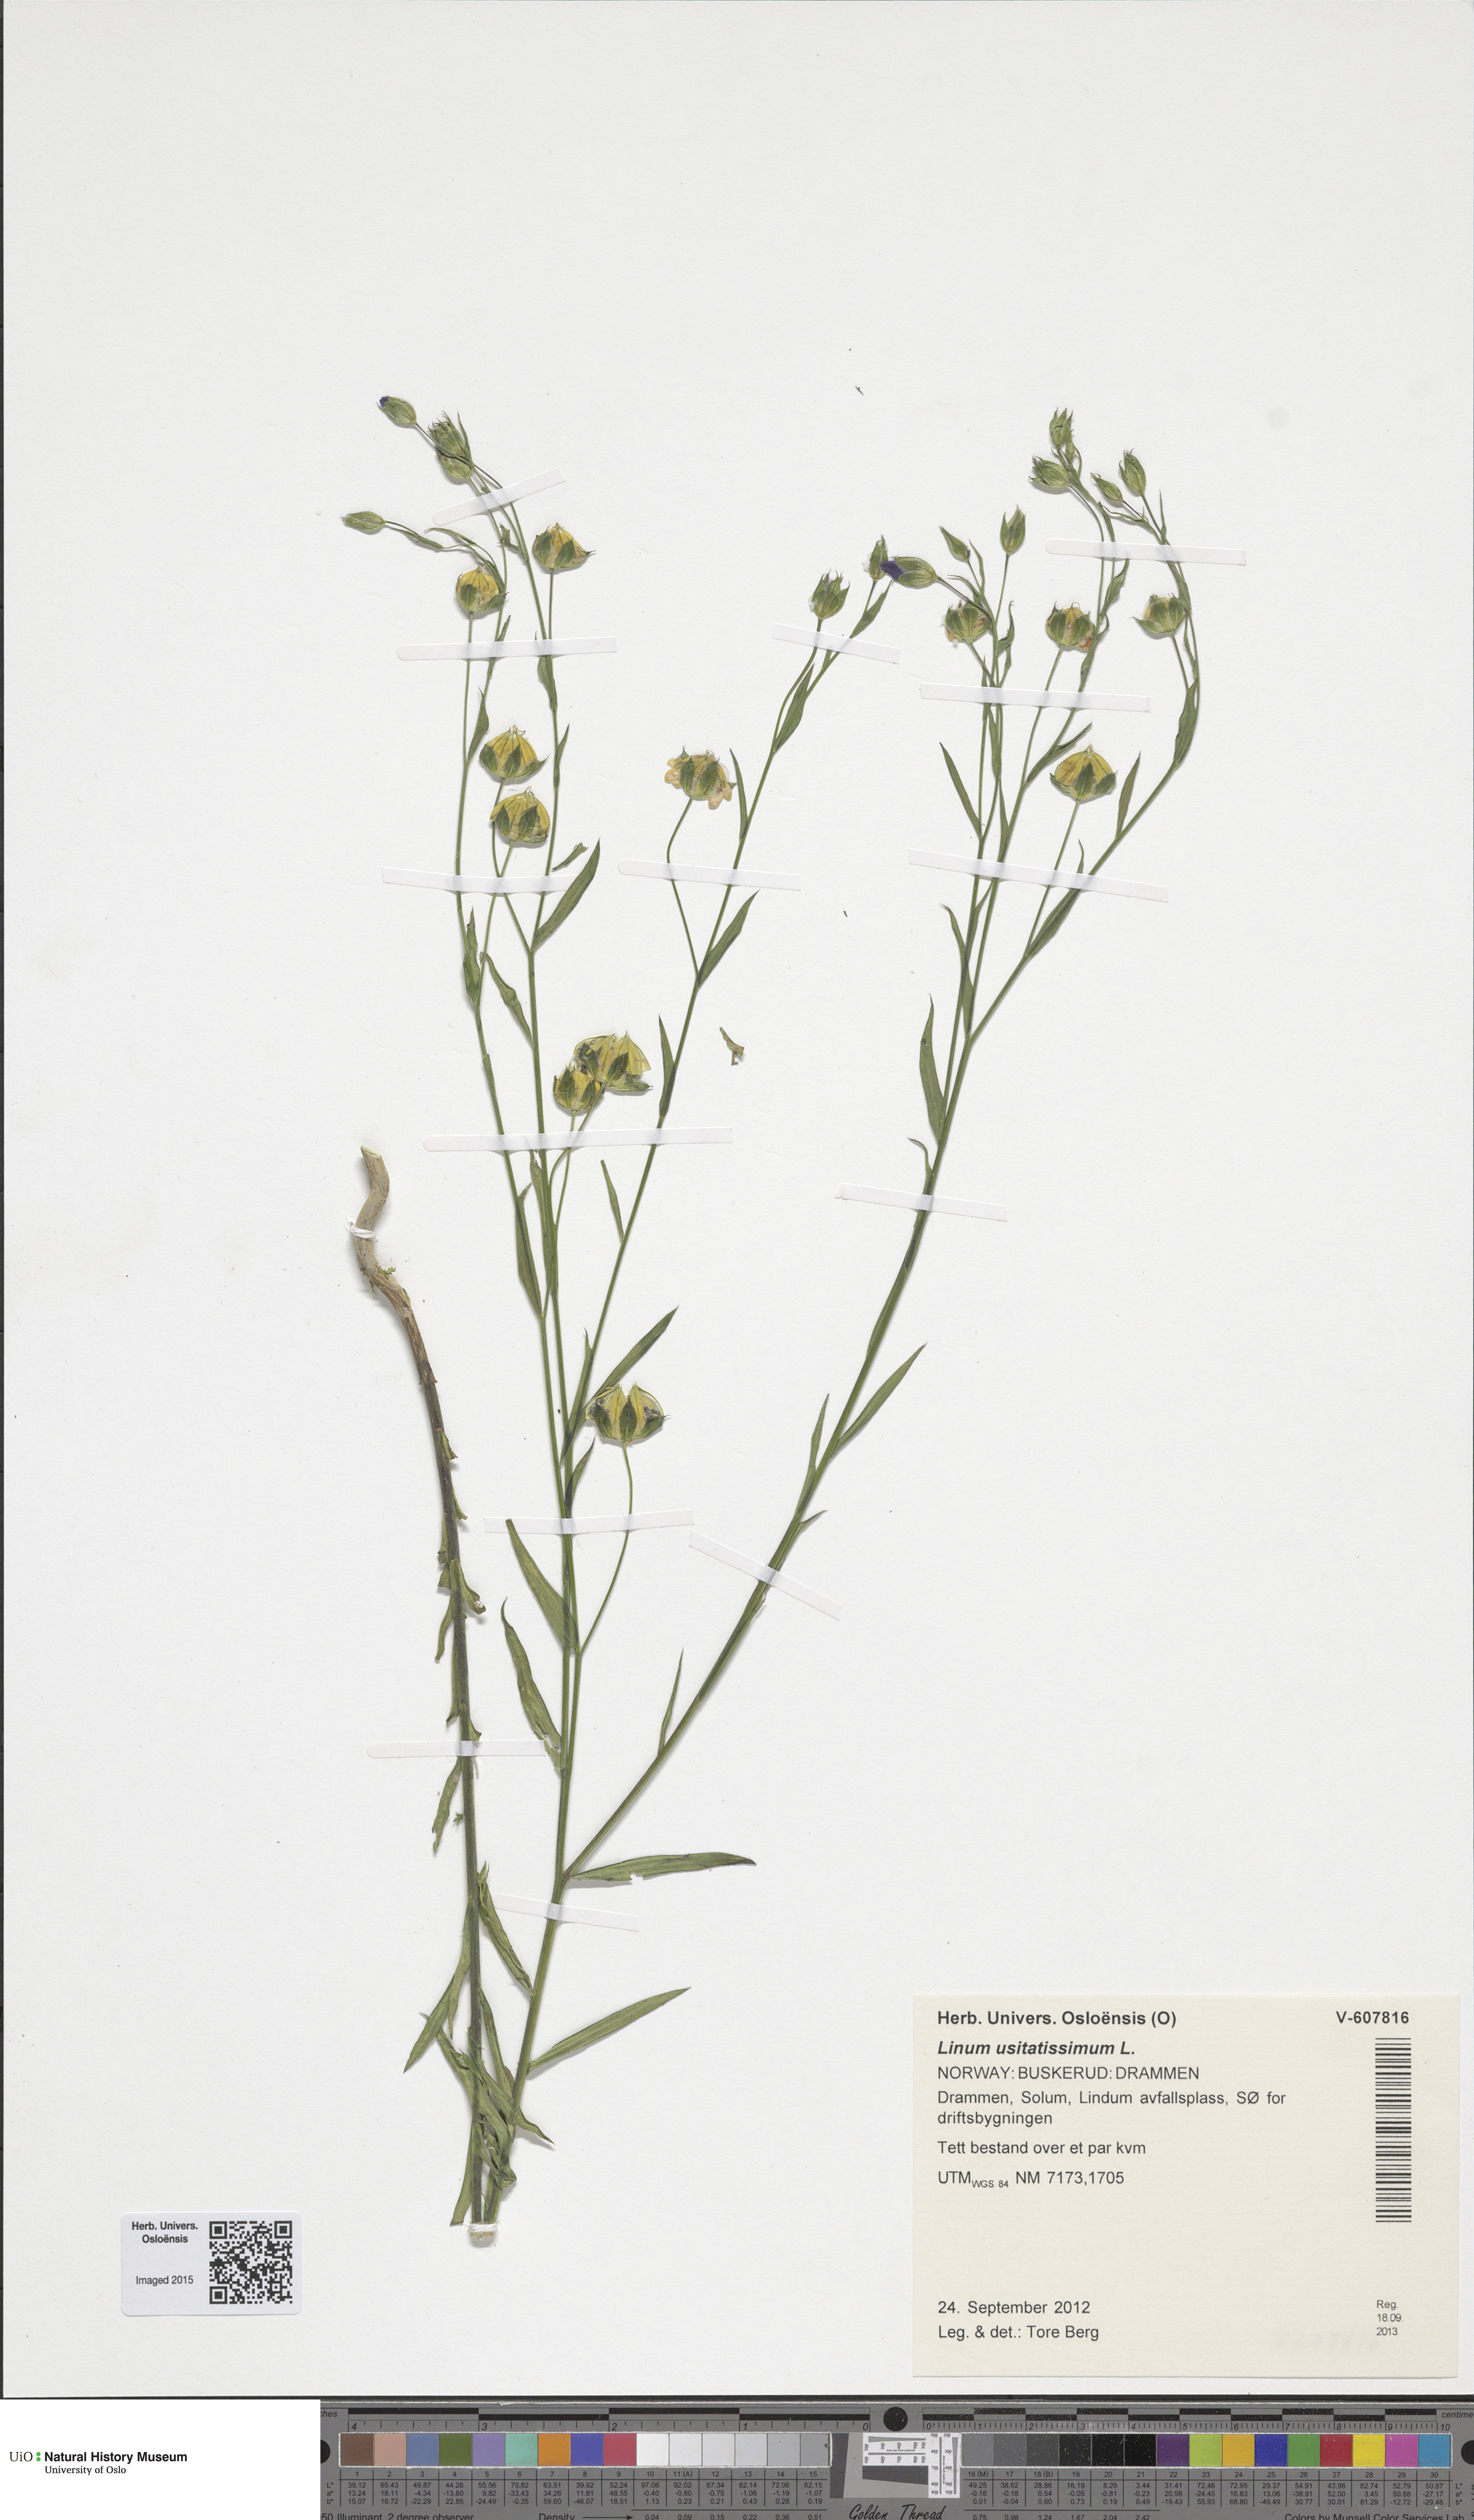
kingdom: Plantae
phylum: Tracheophyta
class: Magnoliopsida
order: Malpighiales
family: Linaceae
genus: Linum
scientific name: Linum usitatissimum
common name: Flax
